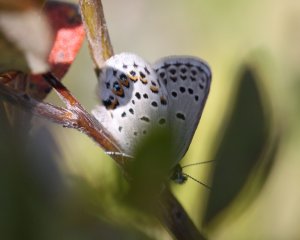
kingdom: Animalia
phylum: Arthropoda
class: Insecta
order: Lepidoptera
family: Lycaenidae
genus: Lycaeides
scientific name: Lycaeides idas
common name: Northern Blue
